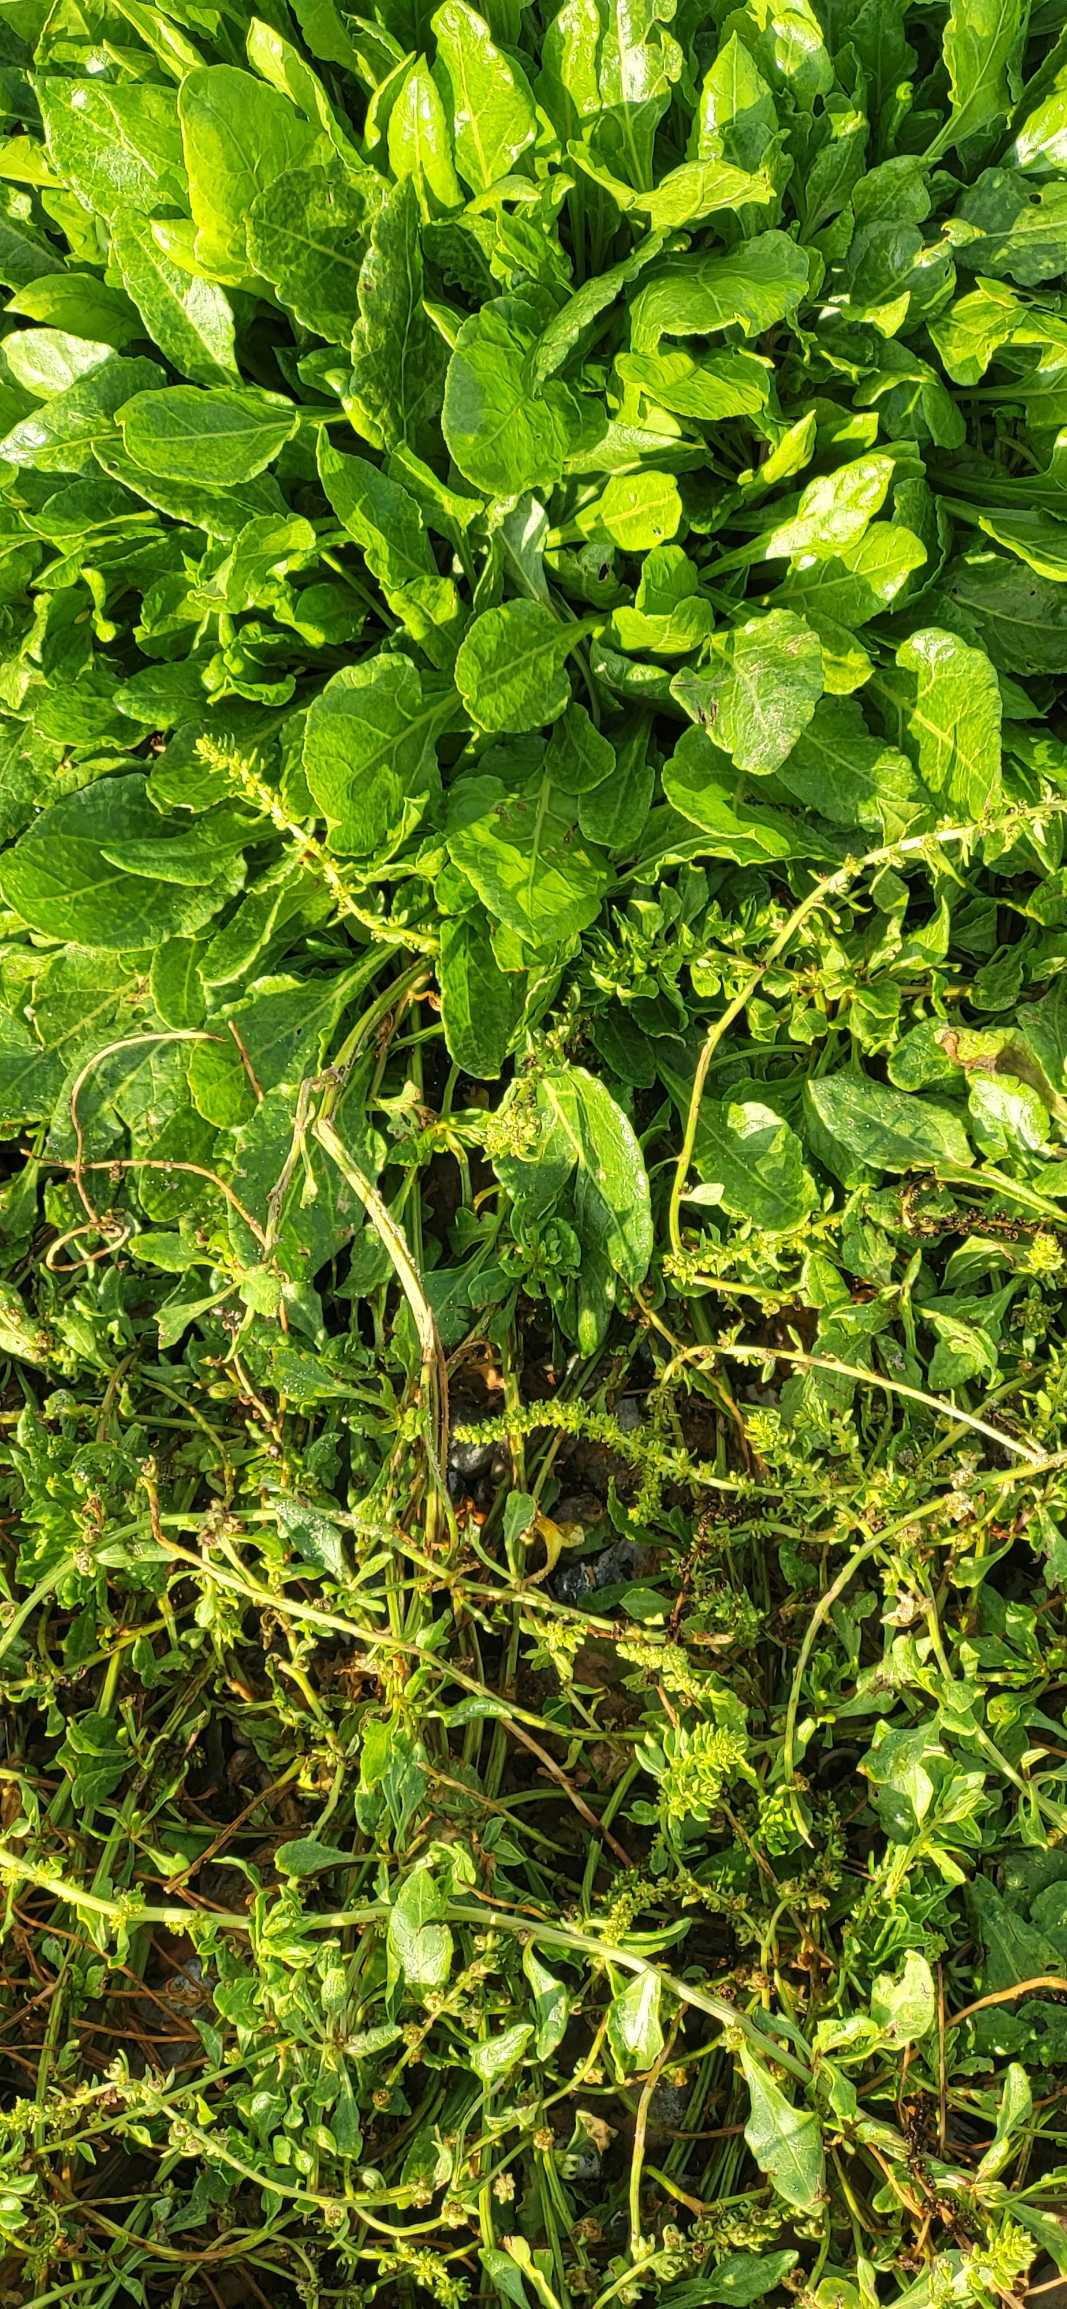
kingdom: Plantae
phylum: Tracheophyta
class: Magnoliopsida
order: Caryophyllales
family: Amaranthaceae
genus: Beta
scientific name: Beta maritima
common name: Strand-bede
